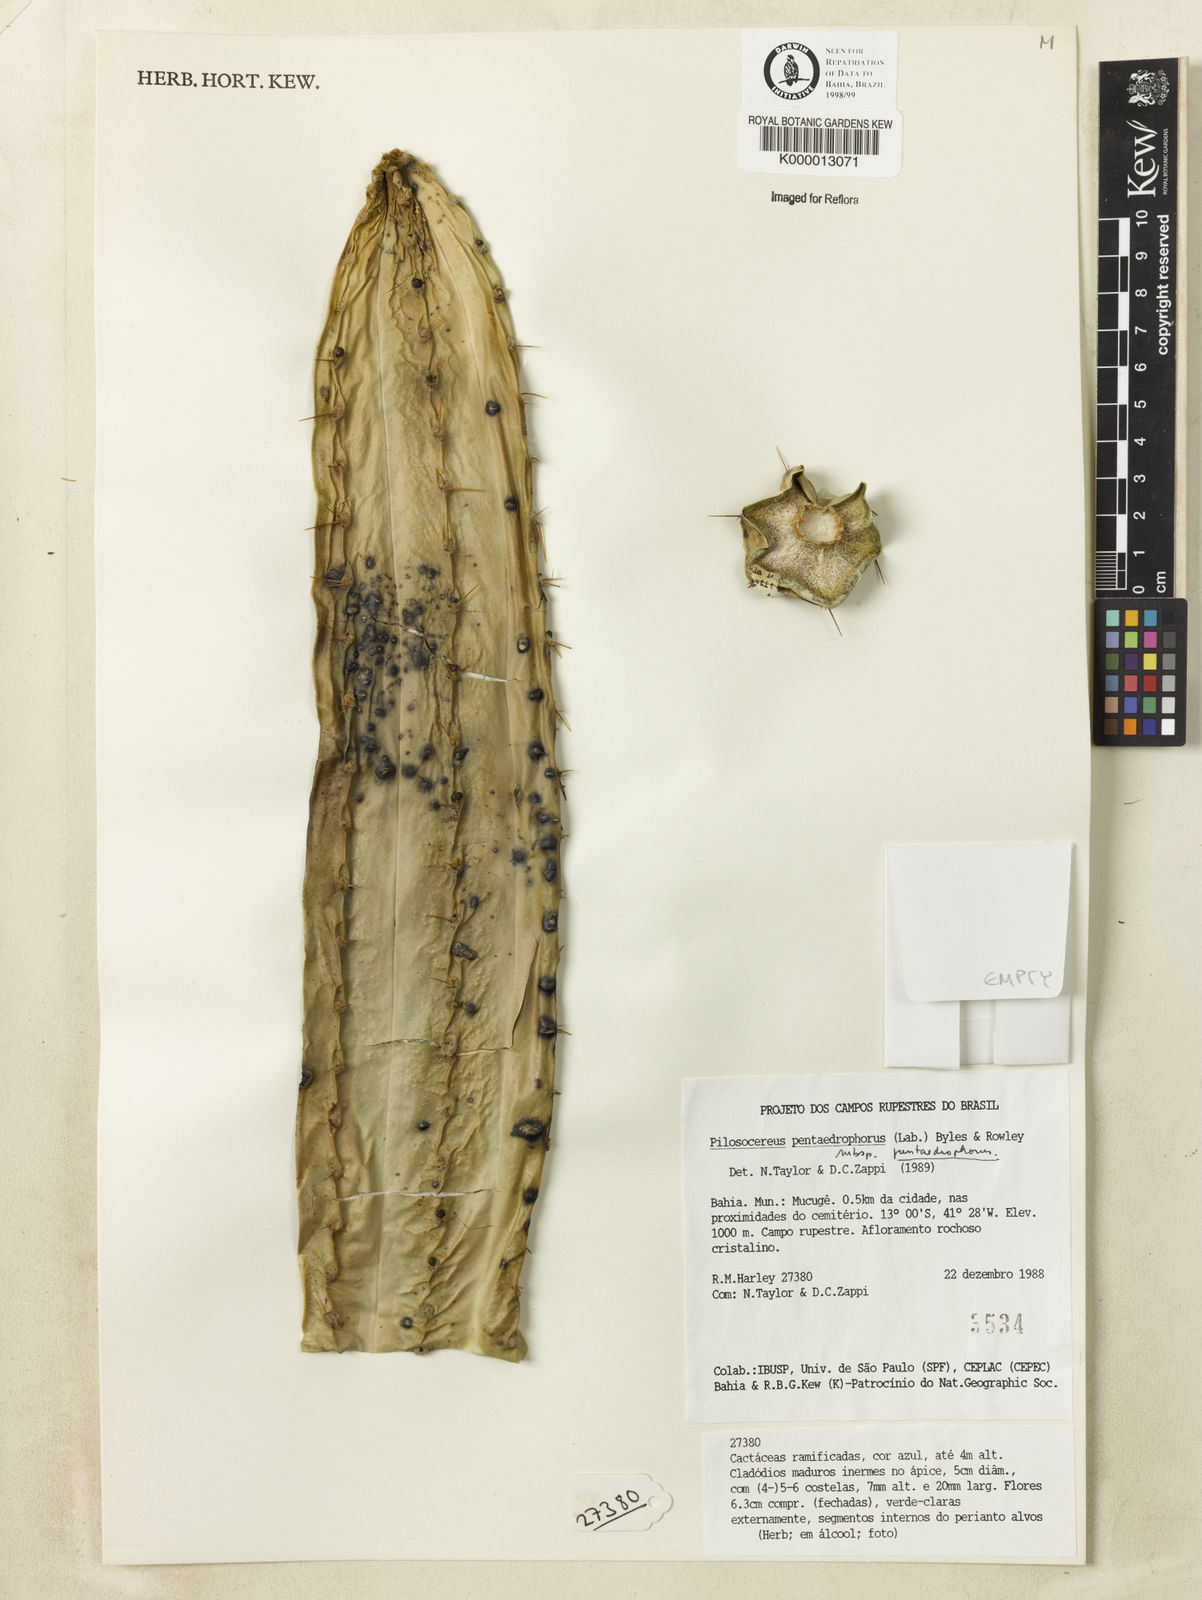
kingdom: Plantae
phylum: Tracheophyta
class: Magnoliopsida
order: Caryophyllales
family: Cactaceae
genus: Pilosocereus
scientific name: Pilosocereus pentaedrophorus
